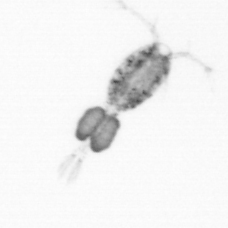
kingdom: Animalia
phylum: Arthropoda
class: Copepoda
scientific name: Copepoda
